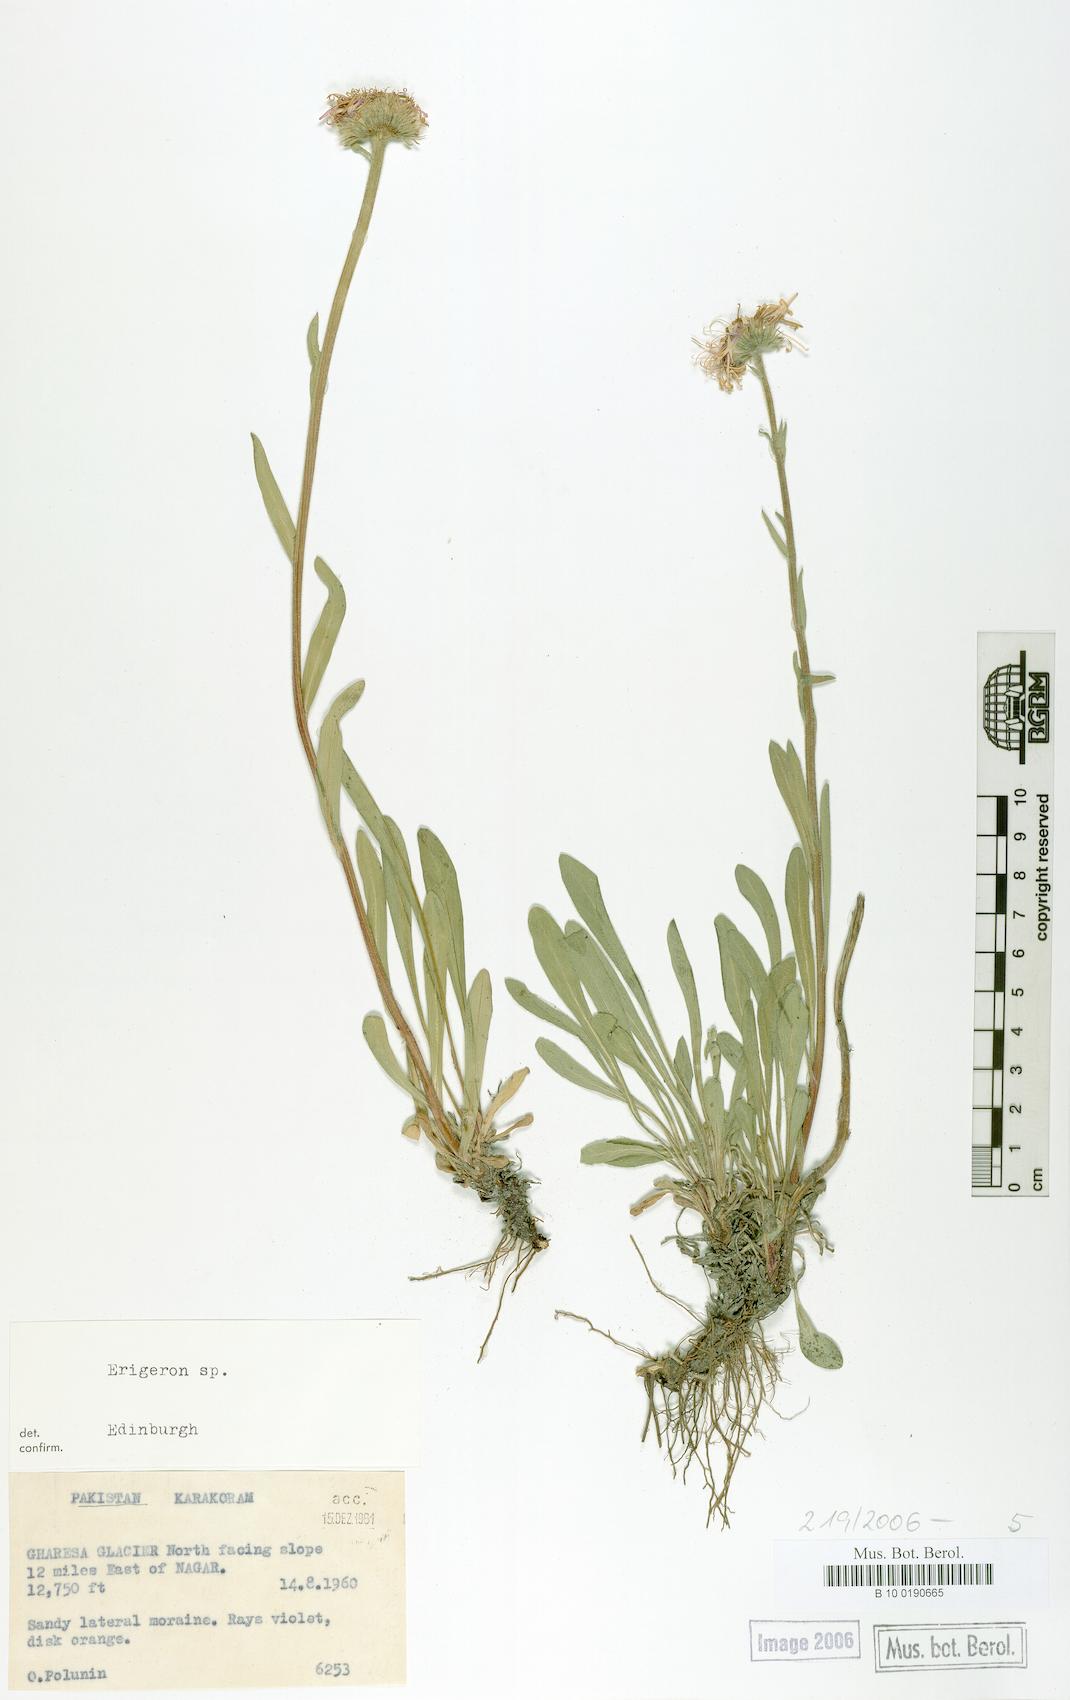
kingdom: Plantae
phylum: Tracheophyta
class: Magnoliopsida
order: Asterales
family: Asteraceae
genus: Erigeron
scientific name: Erigeron
